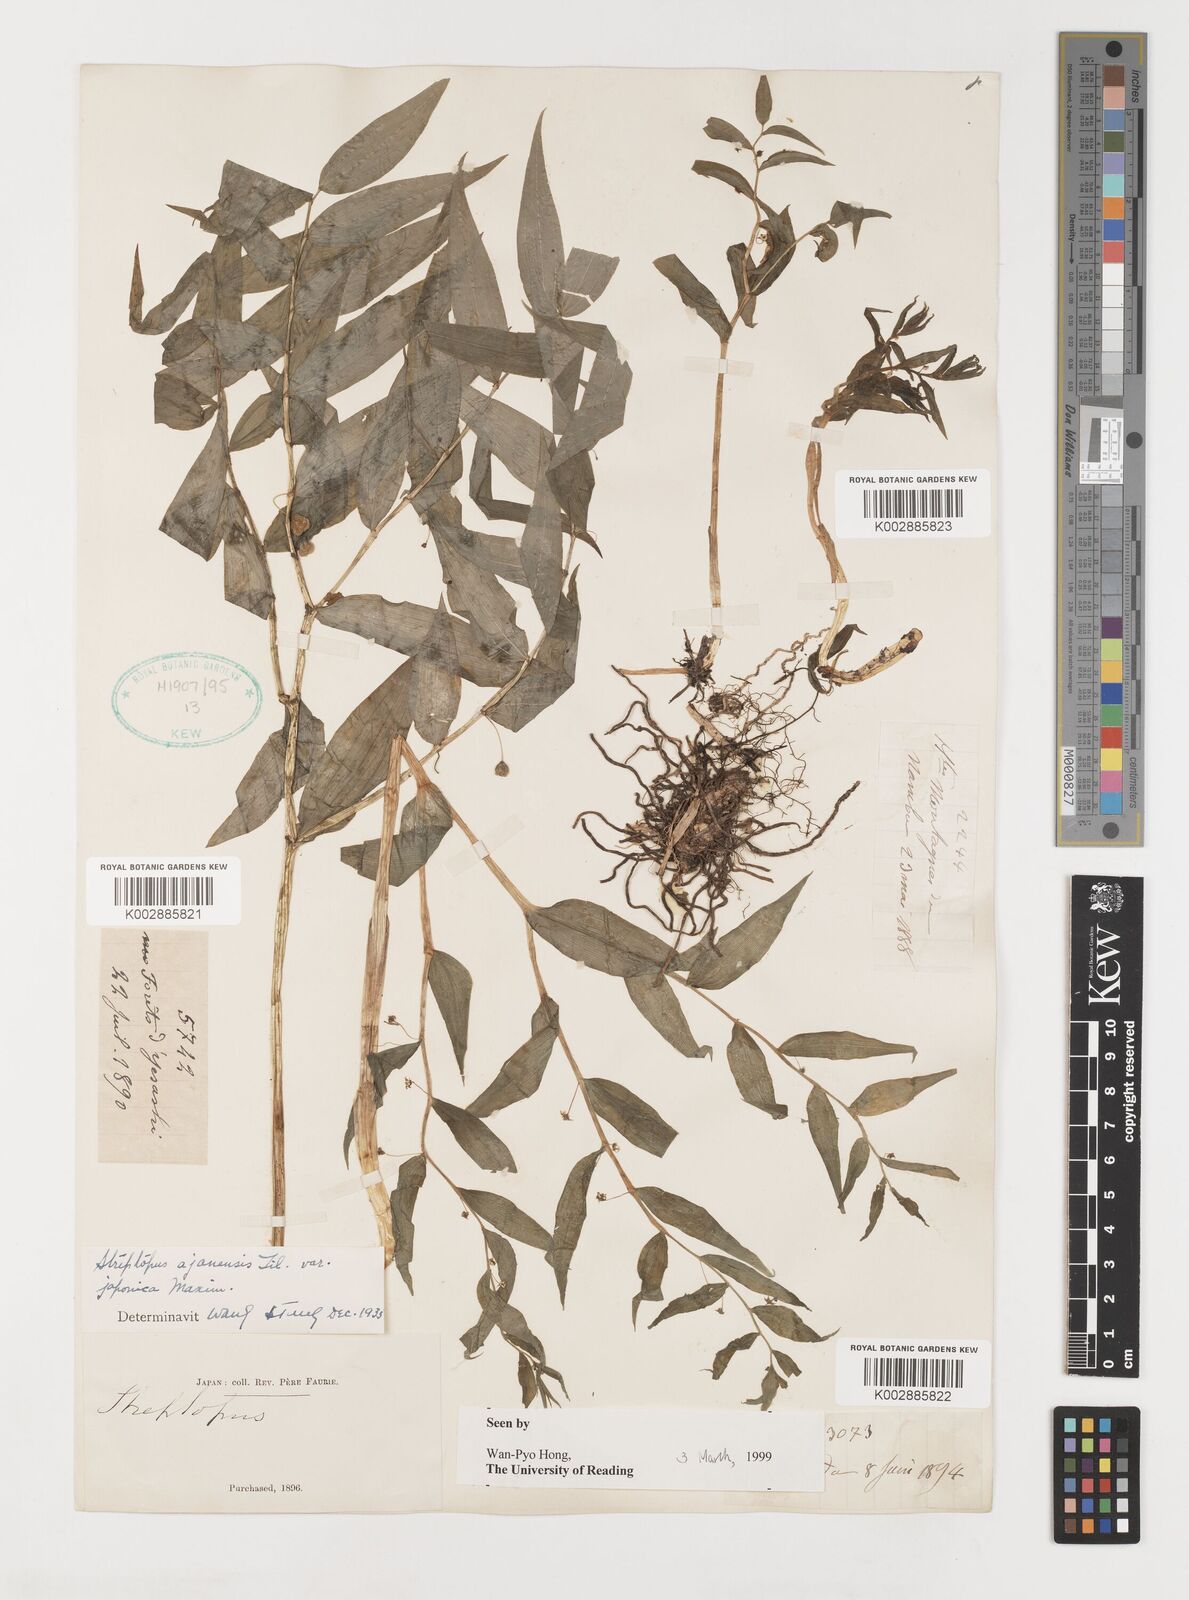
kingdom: Plantae
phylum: Tracheophyta
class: Liliopsida
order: Liliales
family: Liliaceae
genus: Streptopus
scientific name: Streptopus
